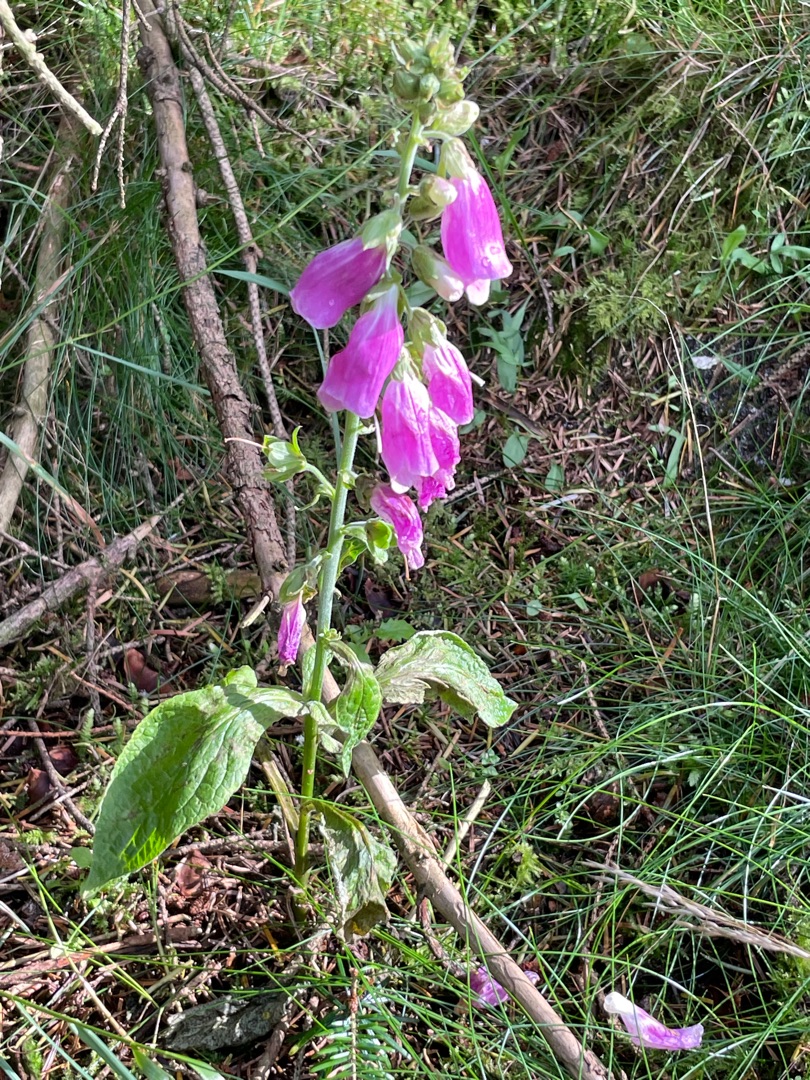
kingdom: Plantae
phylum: Tracheophyta
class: Magnoliopsida
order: Lamiales
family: Plantaginaceae
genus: Digitalis
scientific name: Digitalis purpurea
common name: Almindelig fingerbøl
